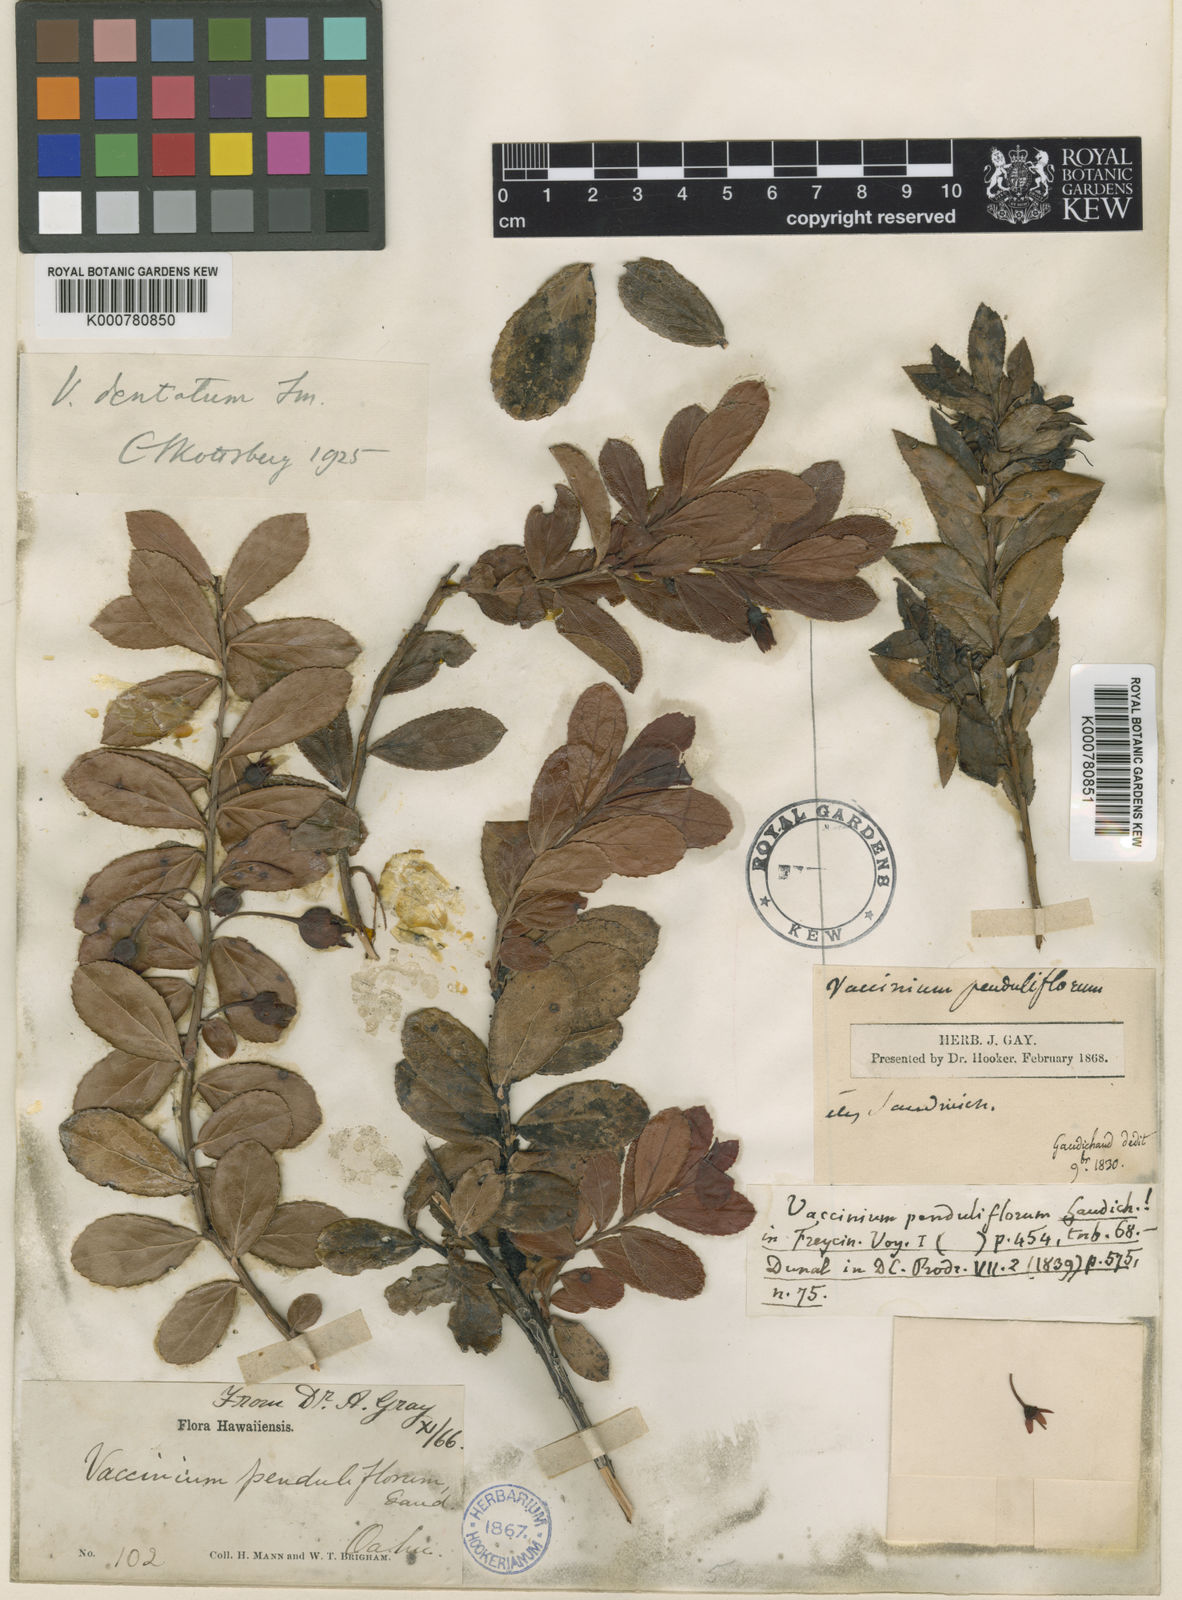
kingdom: Plantae
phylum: Tracheophyta
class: Magnoliopsida
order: Ericales
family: Ericaceae
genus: Vaccinium
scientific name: Vaccinium dentatum
